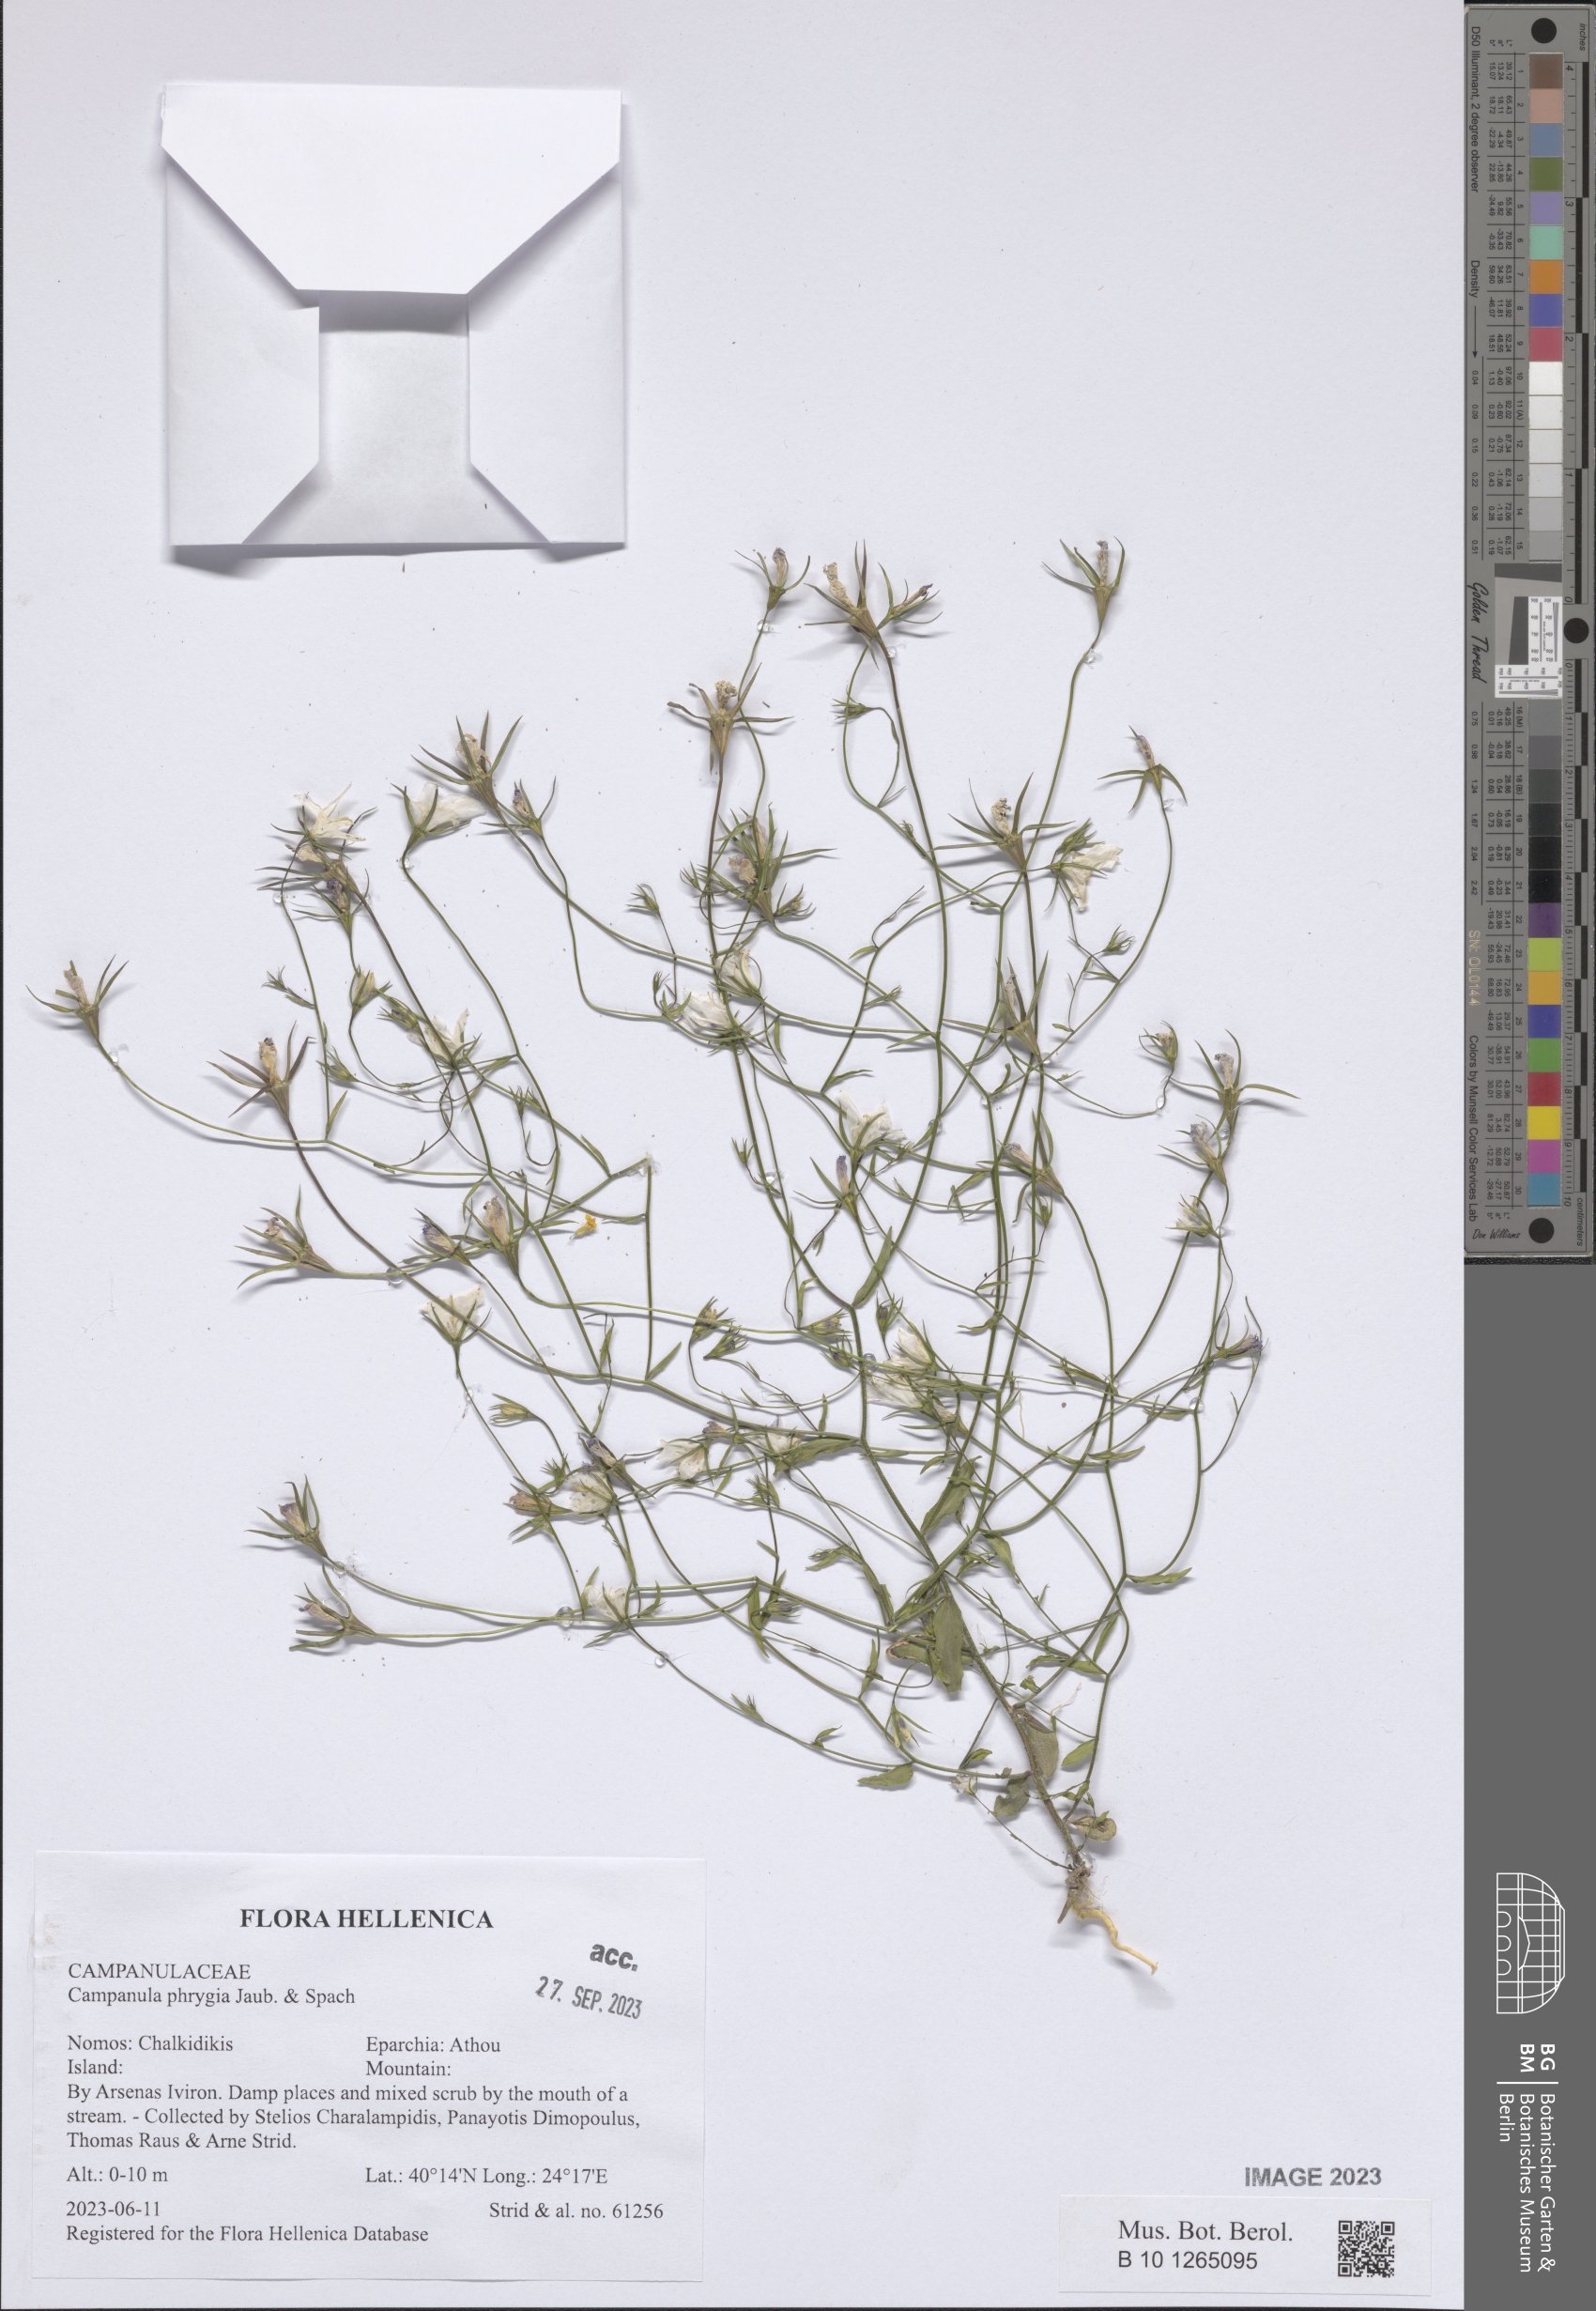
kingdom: Plantae
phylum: Tracheophyta
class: Magnoliopsida
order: Asterales
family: Campanulaceae
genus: Campanula
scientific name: Campanula phrygia
